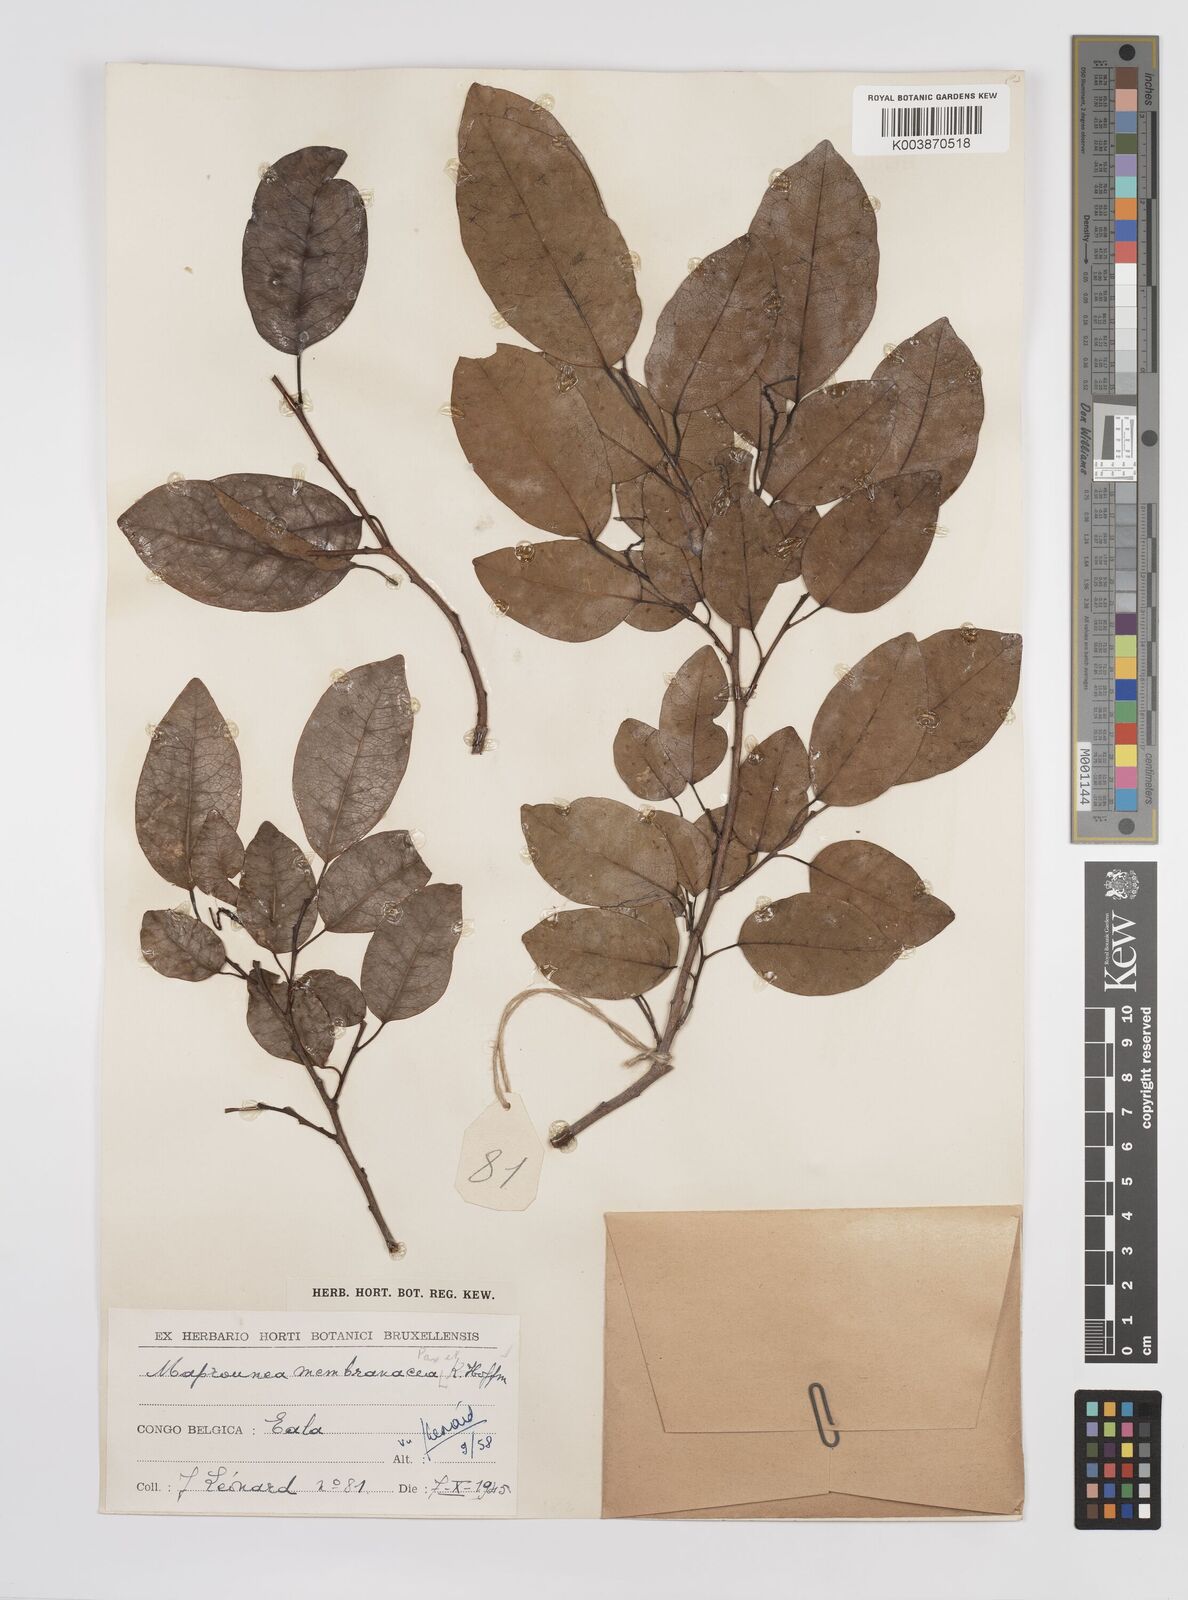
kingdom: Plantae
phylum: Tracheophyta
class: Magnoliopsida
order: Malpighiales
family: Euphorbiaceae
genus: Maprounea
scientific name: Maprounea membranacea
